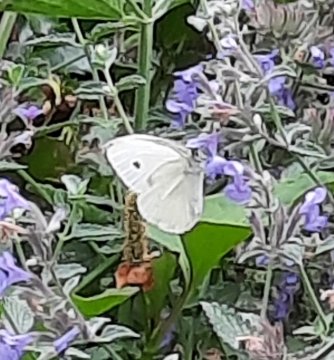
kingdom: Animalia
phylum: Arthropoda
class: Insecta
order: Lepidoptera
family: Pieridae
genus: Pieris
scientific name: Pieris rapae
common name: Cabbage White
